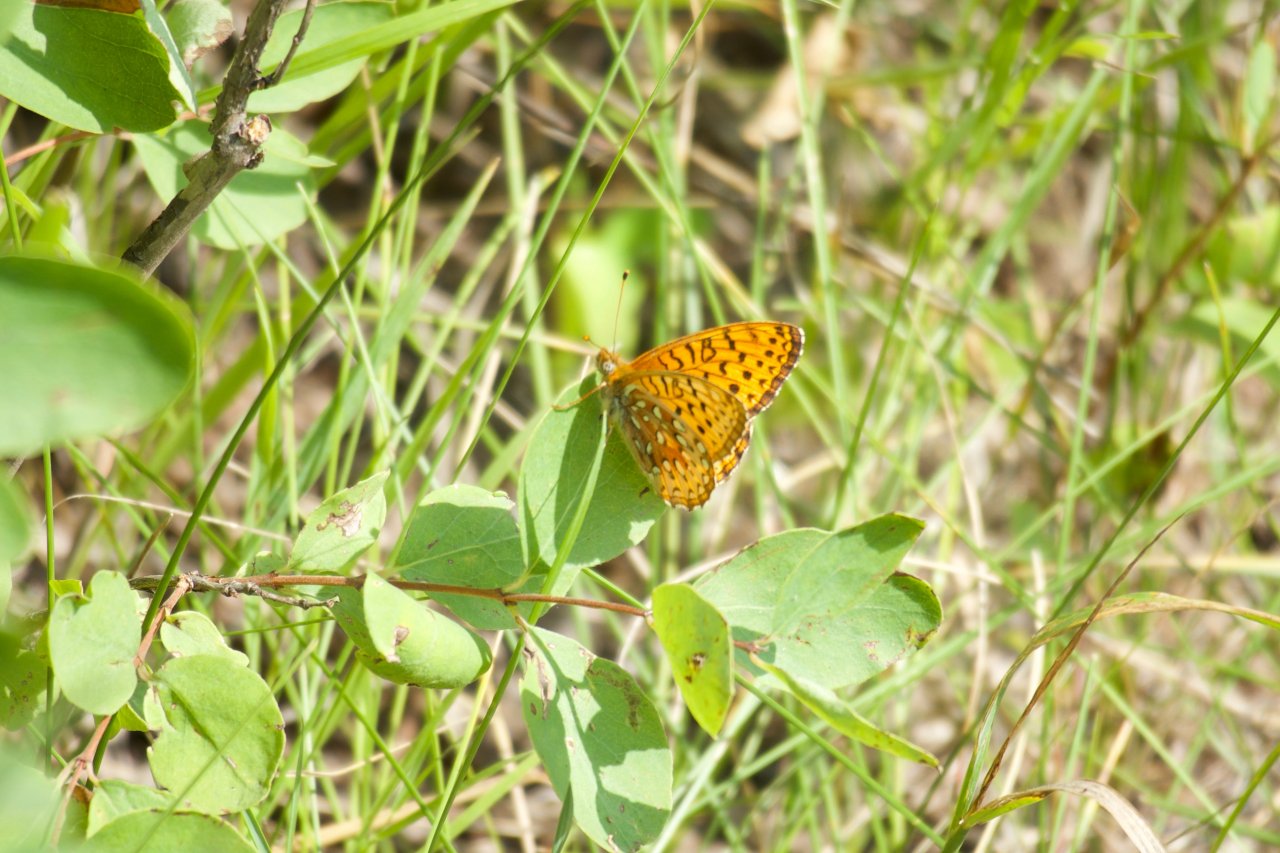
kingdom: Animalia
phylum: Arthropoda
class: Insecta
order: Lepidoptera
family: Nymphalidae
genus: Speyeria
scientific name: Speyeria atlantis
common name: Northwestern Fritillary
